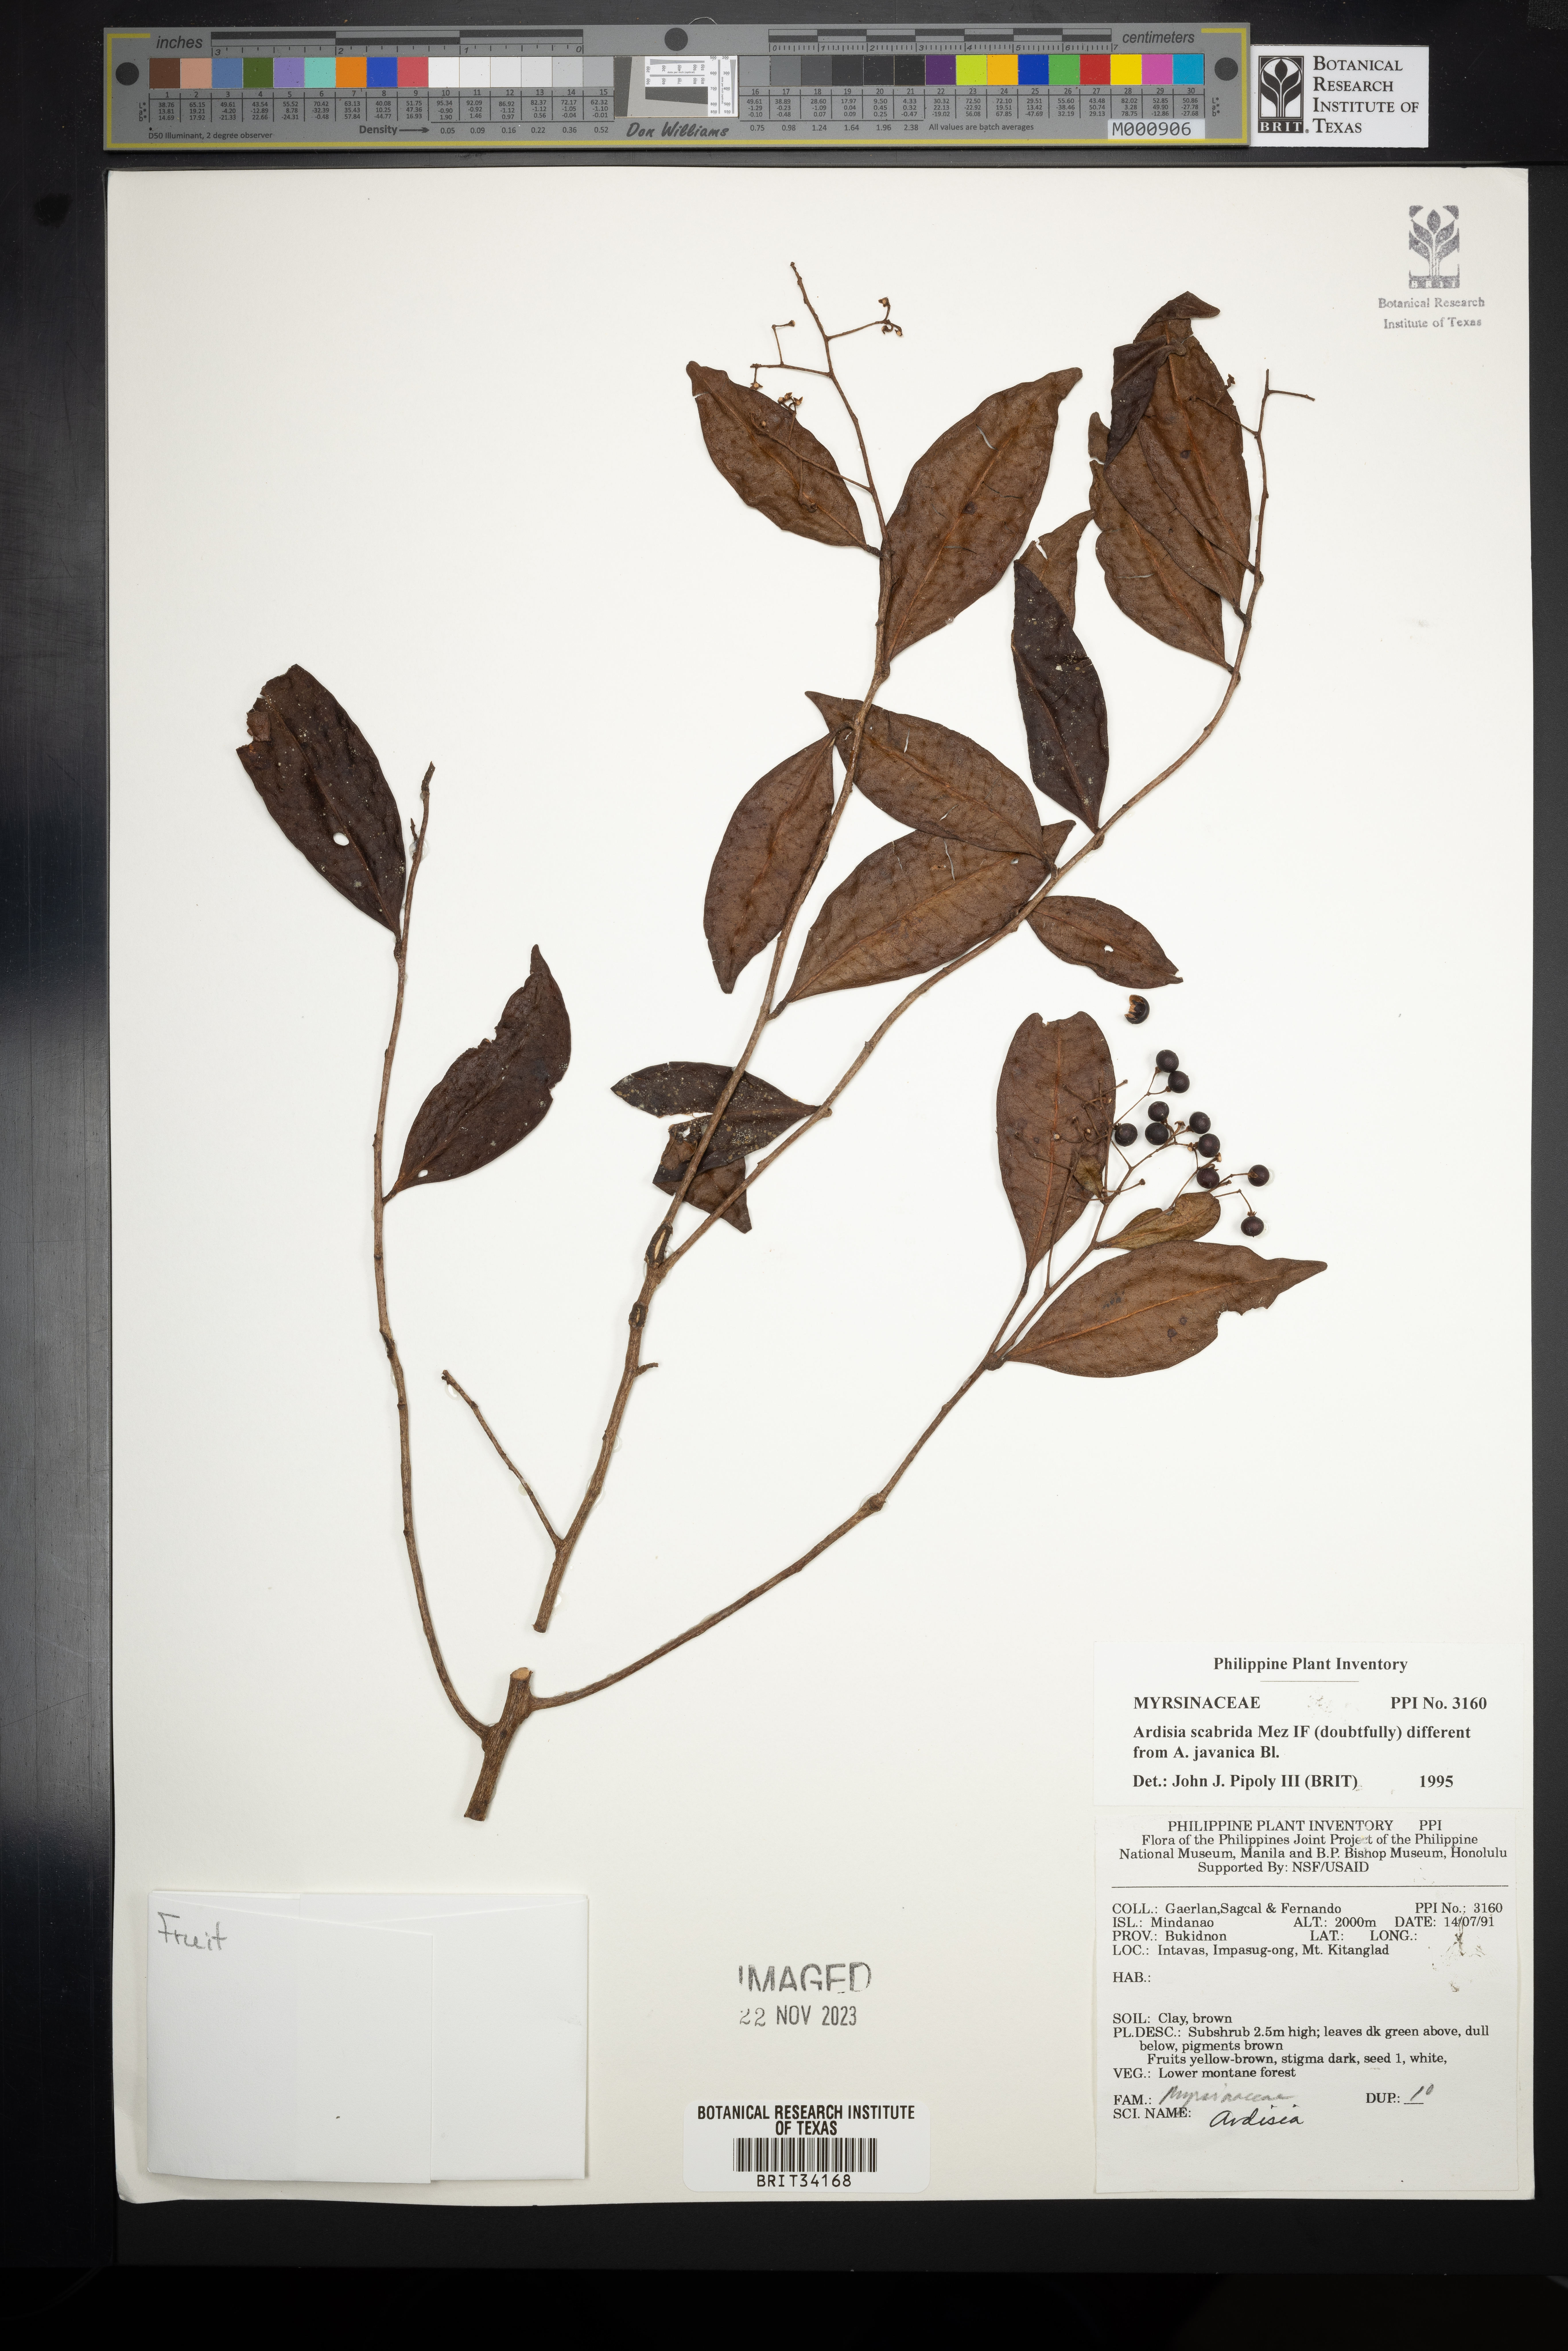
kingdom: Plantae
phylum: Tracheophyta
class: Magnoliopsida
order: Ericales
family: Primulaceae
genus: Ardisia
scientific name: Ardisia
